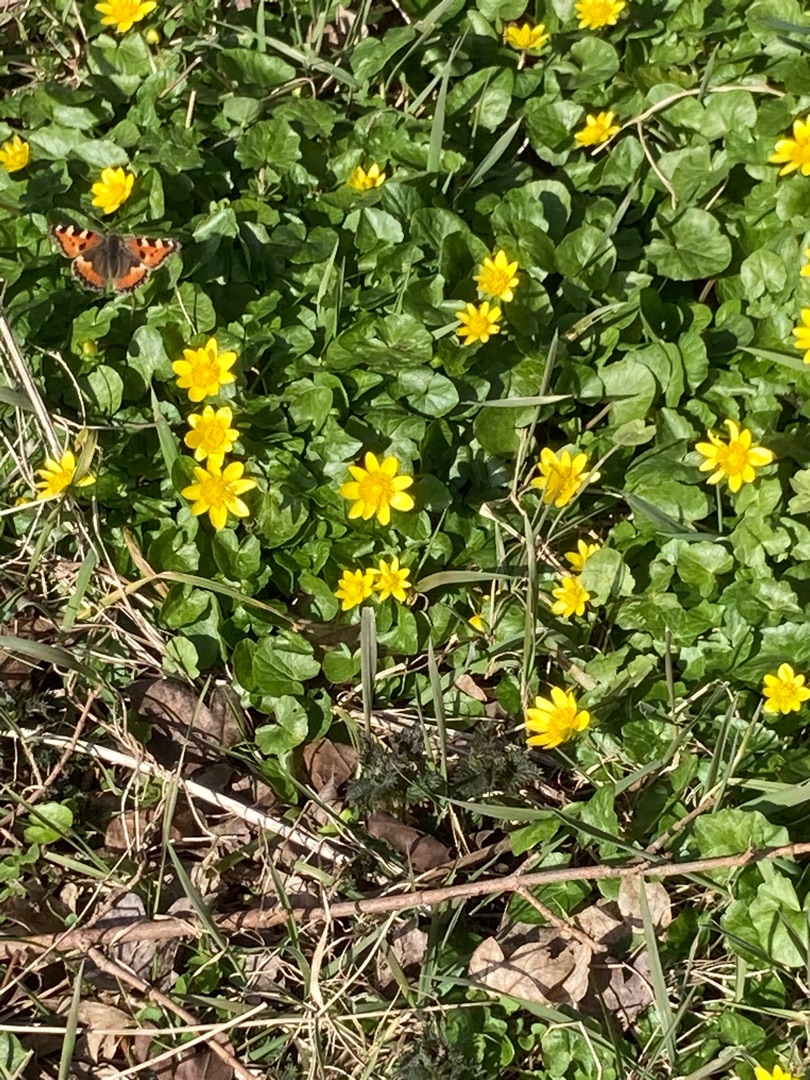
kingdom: Animalia
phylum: Arthropoda
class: Insecta
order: Lepidoptera
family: Nymphalidae
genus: Aglais
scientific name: Aglais urticae
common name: Nældens takvinge
